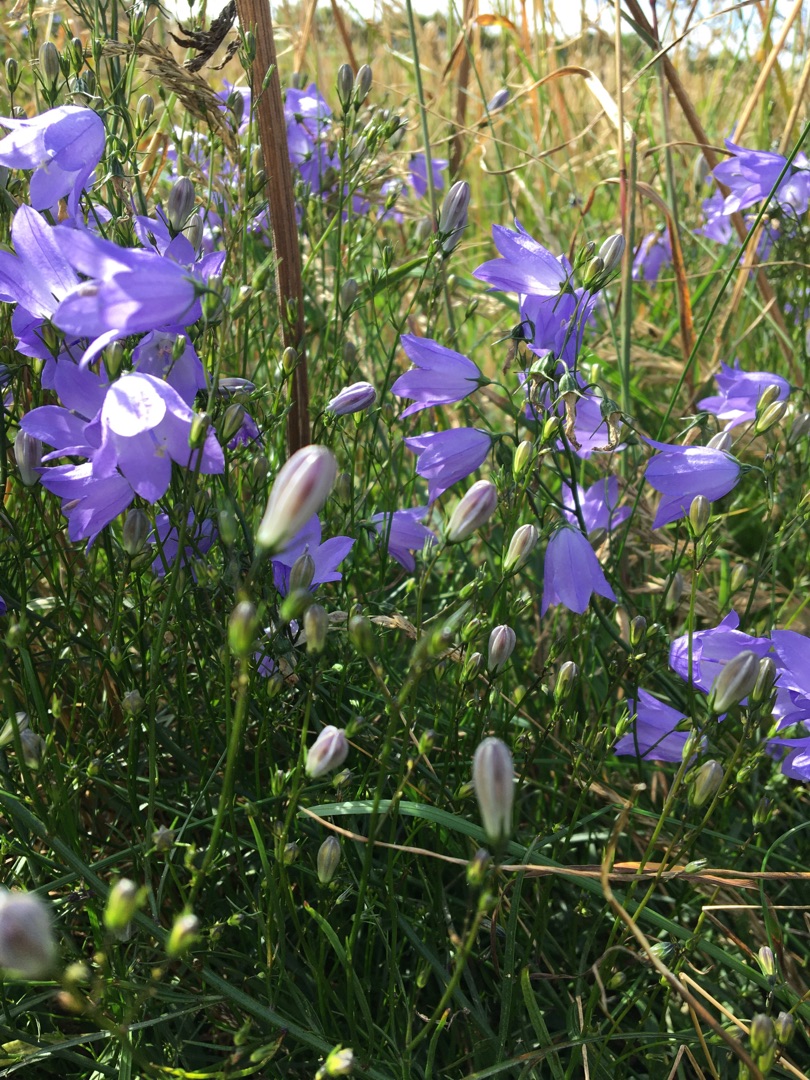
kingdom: Plantae
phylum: Tracheophyta
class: Magnoliopsida
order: Asterales
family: Campanulaceae
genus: Campanula
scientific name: Campanula rotundifolia
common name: Liden klokke
